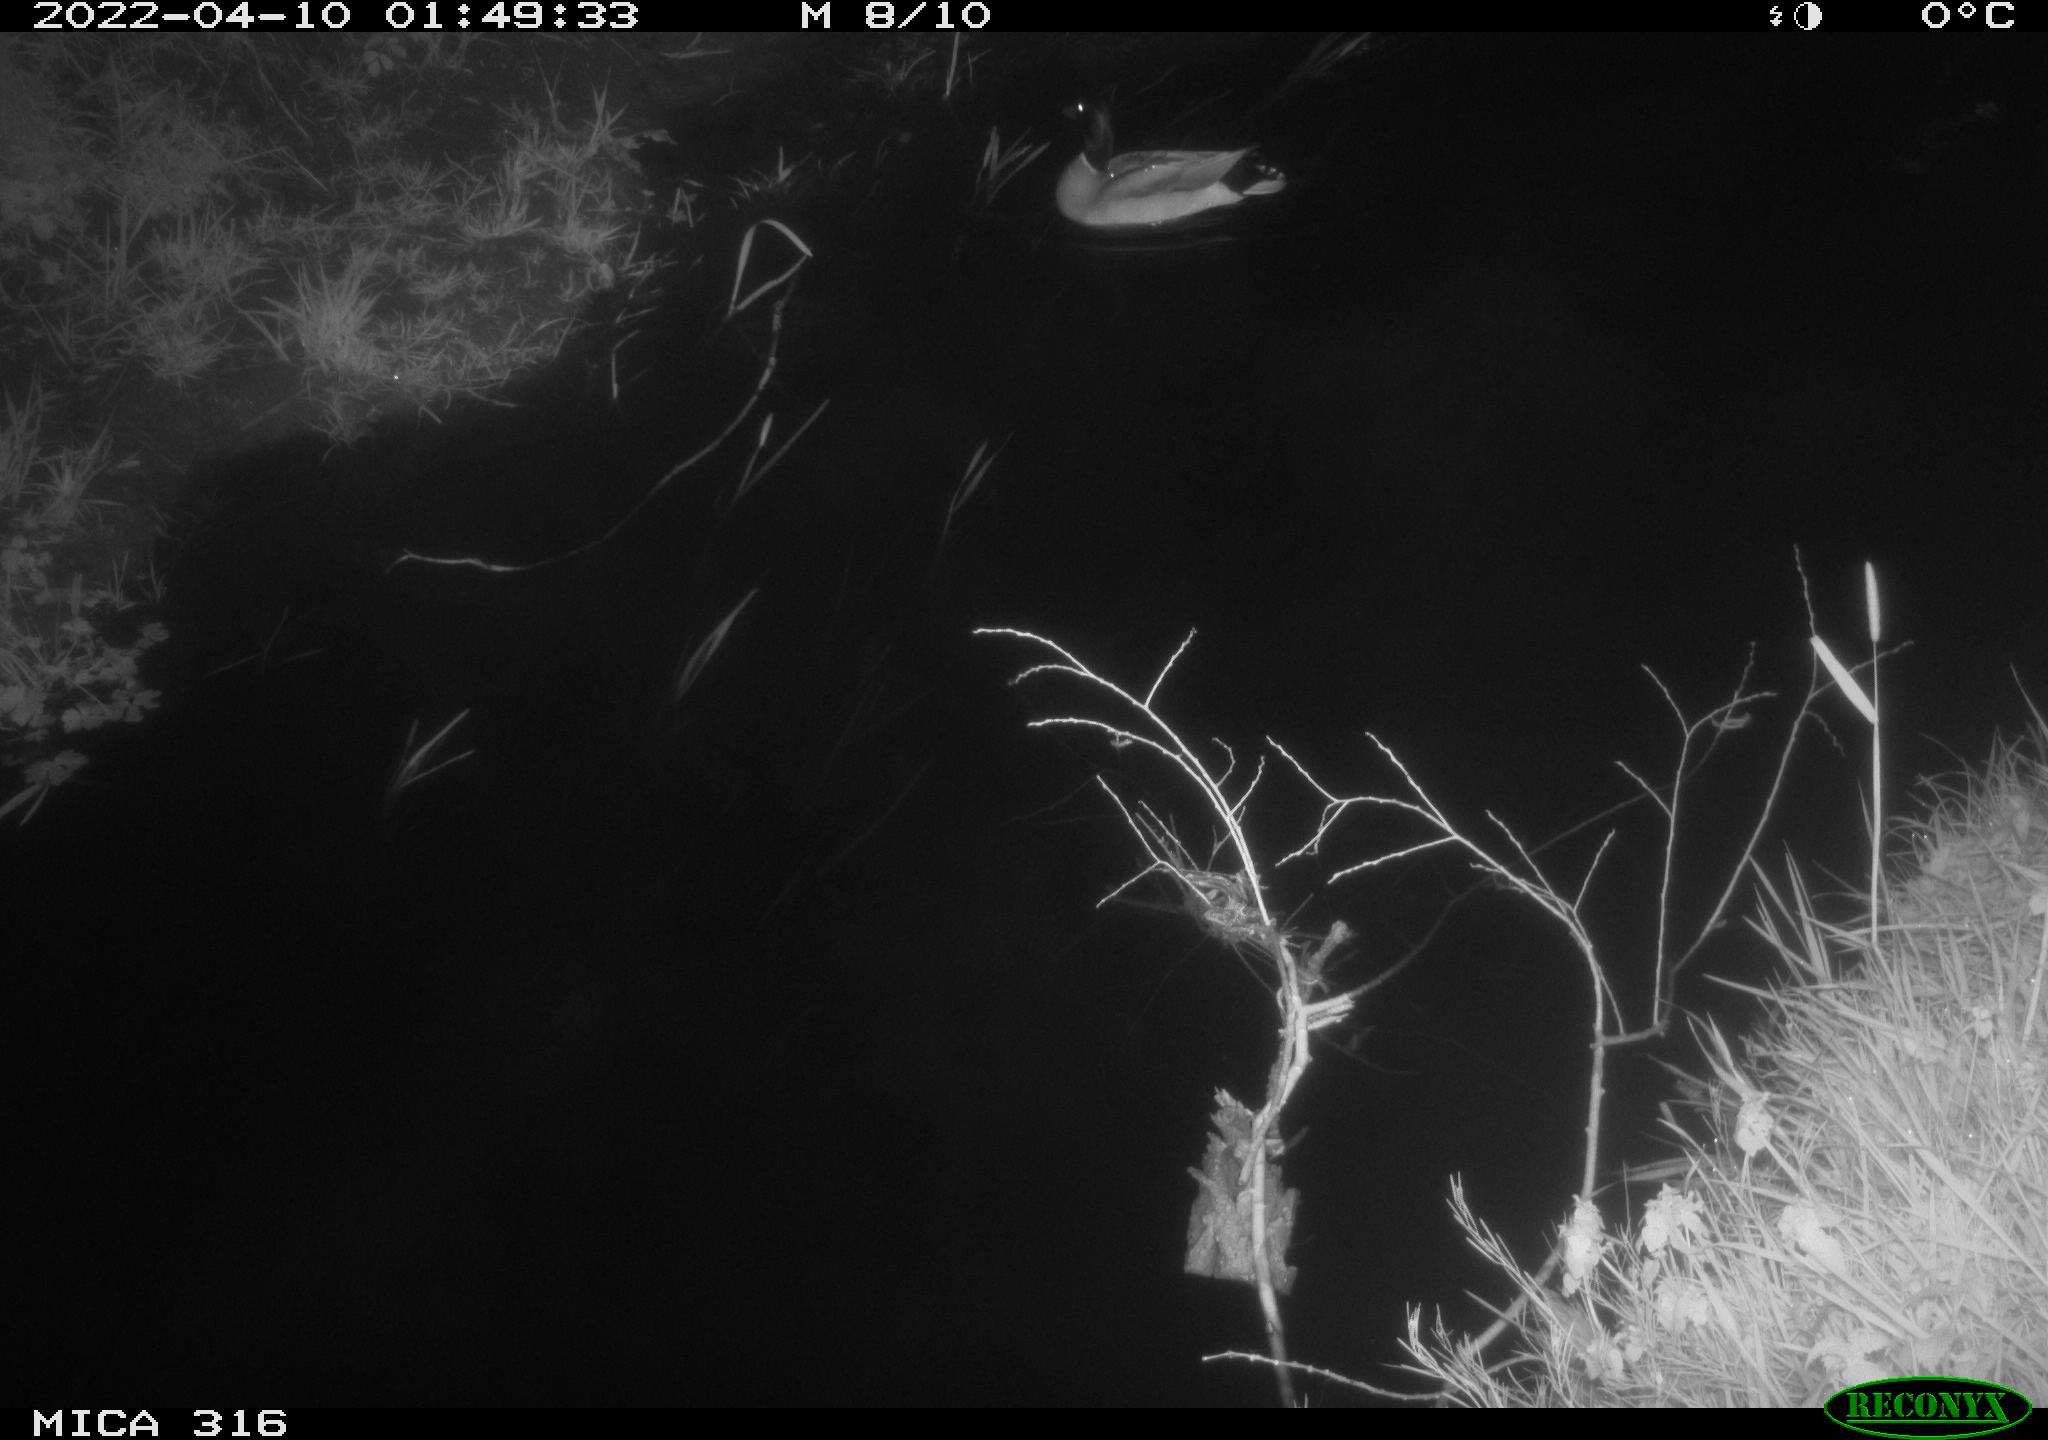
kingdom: Animalia
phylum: Chordata
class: Aves
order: Anseriformes
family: Anatidae
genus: Anas
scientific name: Anas platyrhynchos
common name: Mallard
